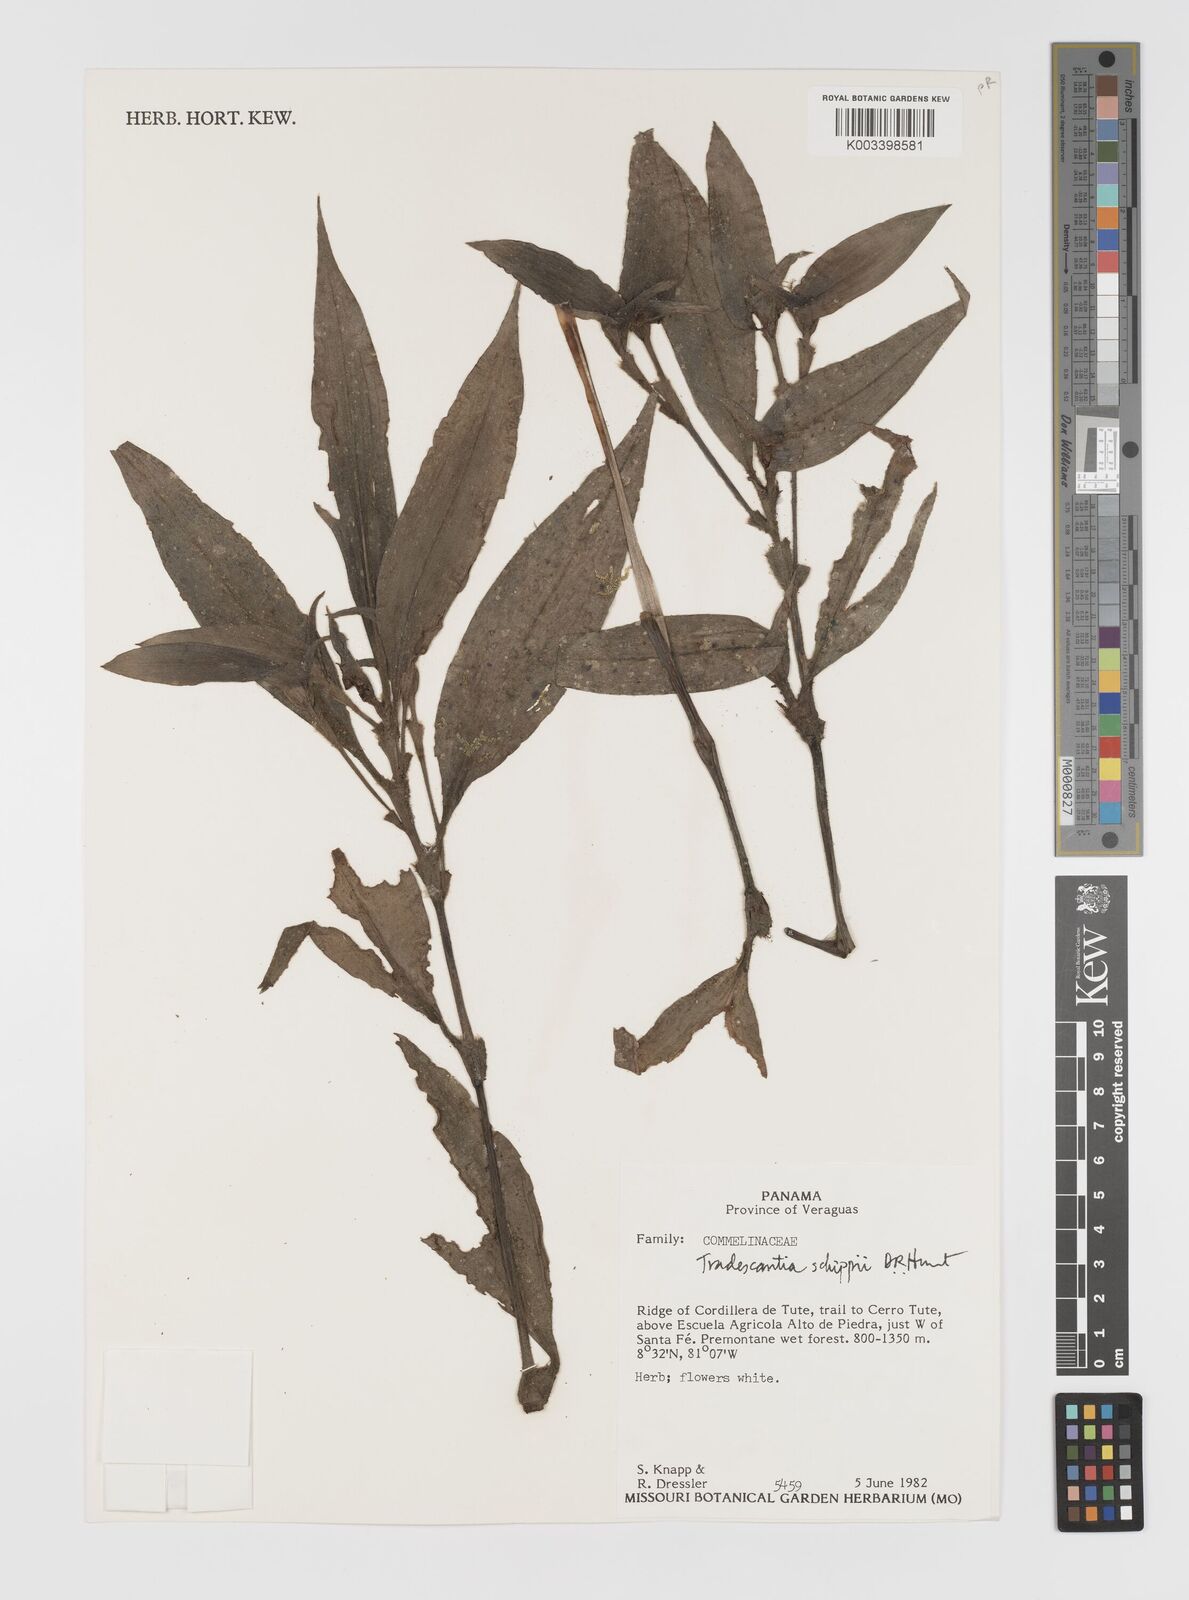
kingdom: Plantae
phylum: Tracheophyta
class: Liliopsida
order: Commelinales
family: Commelinaceae
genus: Tradescantia
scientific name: Tradescantia schippii
